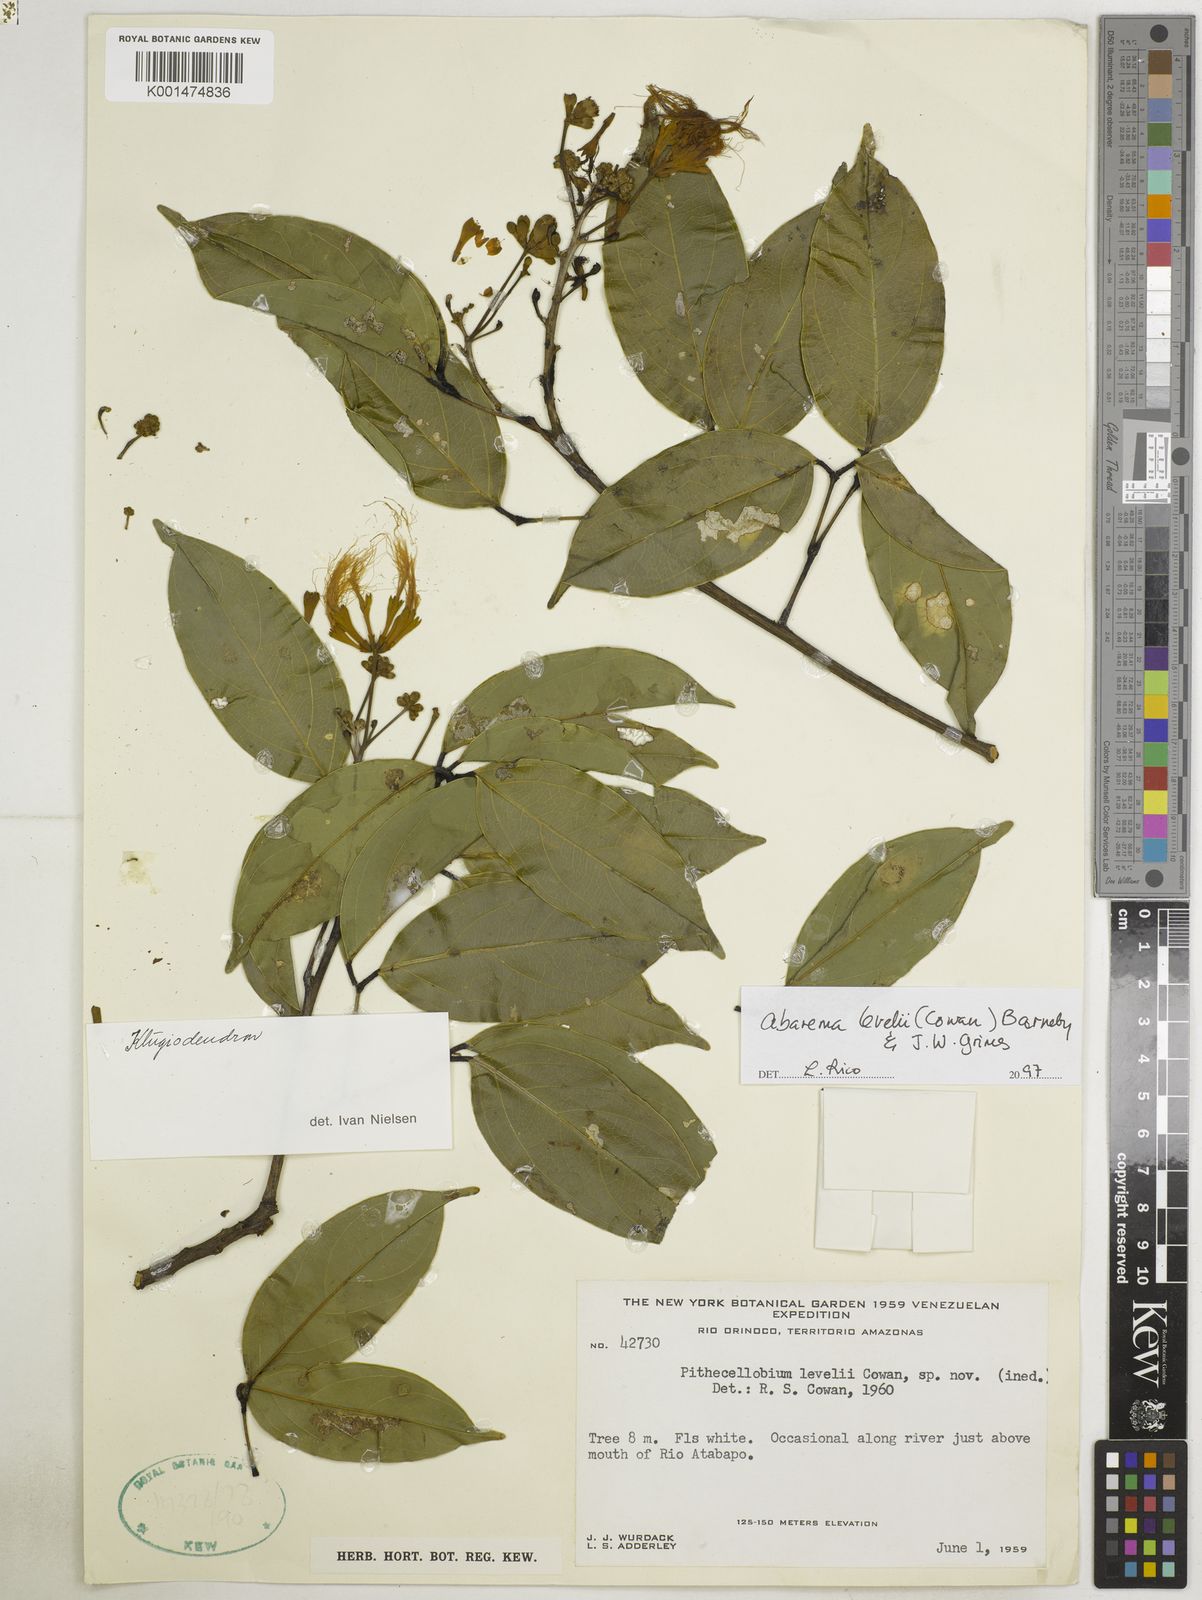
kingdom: Plantae
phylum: Tracheophyta
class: Magnoliopsida
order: Fabales
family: Fabaceae
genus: Abarema
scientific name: Abarema levelii
